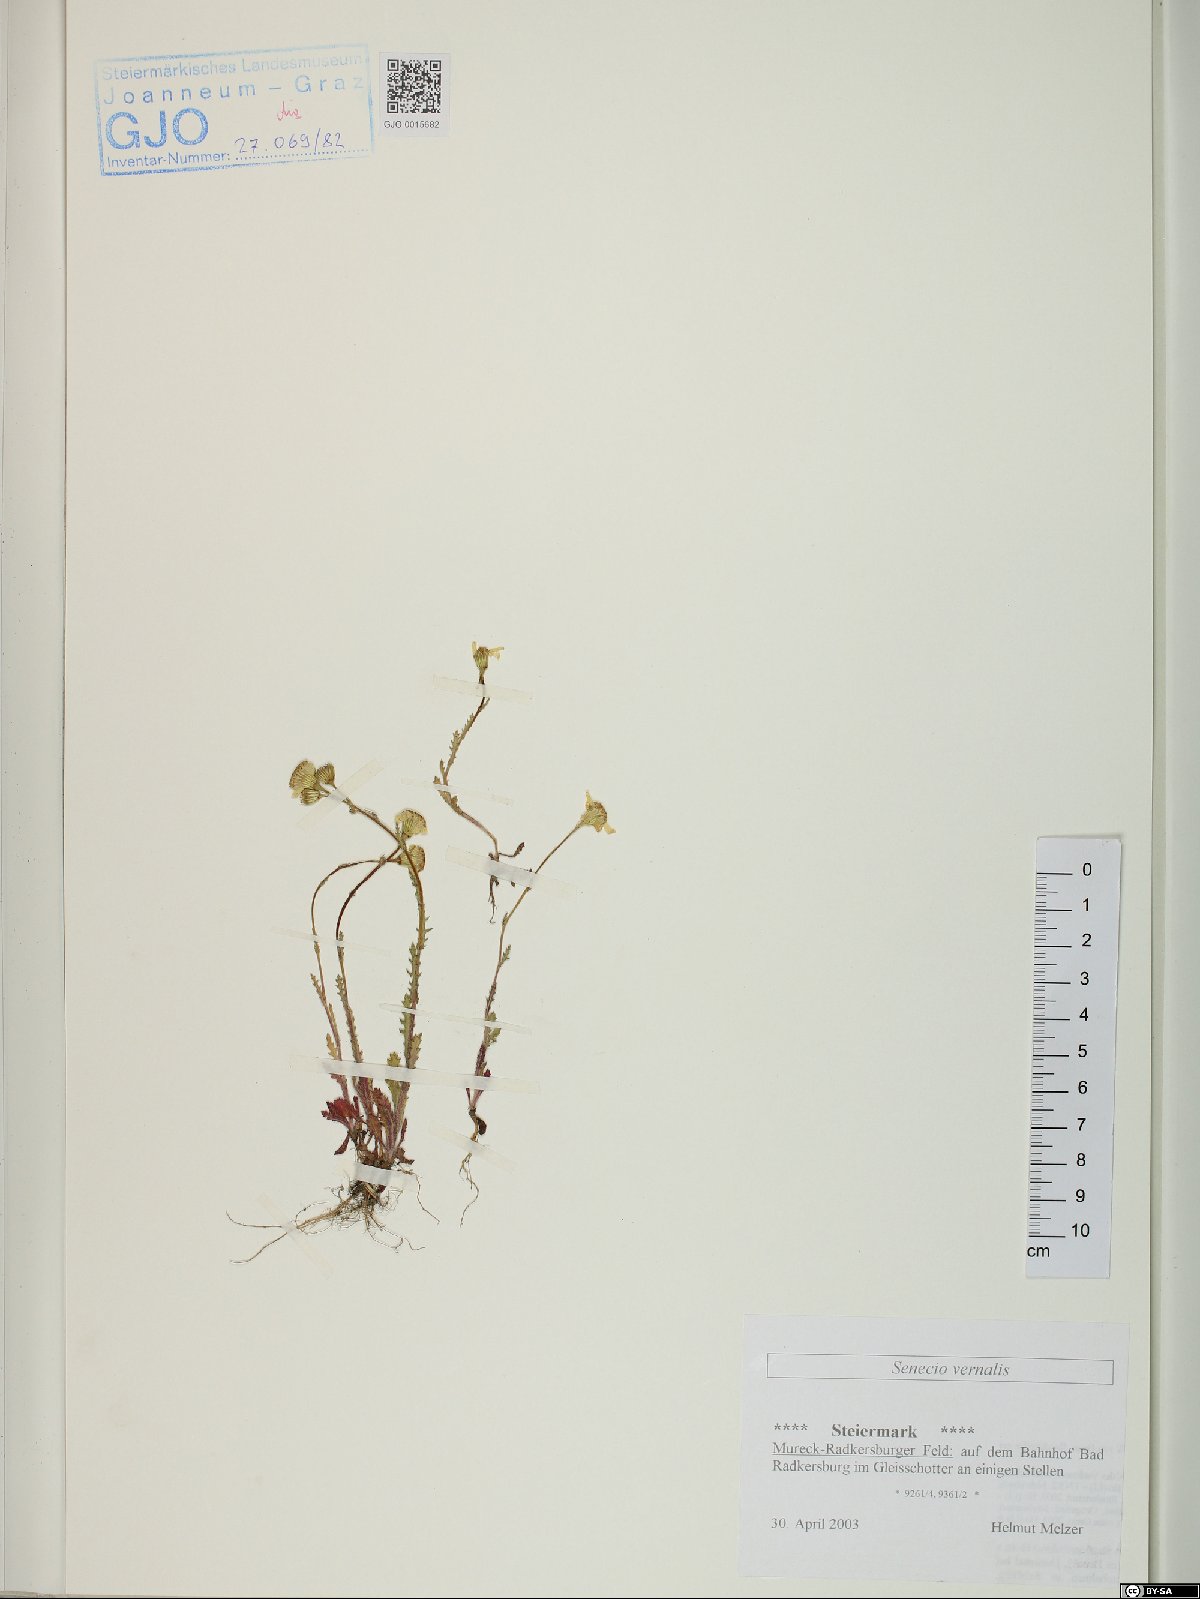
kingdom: Plantae
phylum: Tracheophyta
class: Magnoliopsida
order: Asterales
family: Asteraceae
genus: Senecio
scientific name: Senecio vernalis
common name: Eastern groundsel
